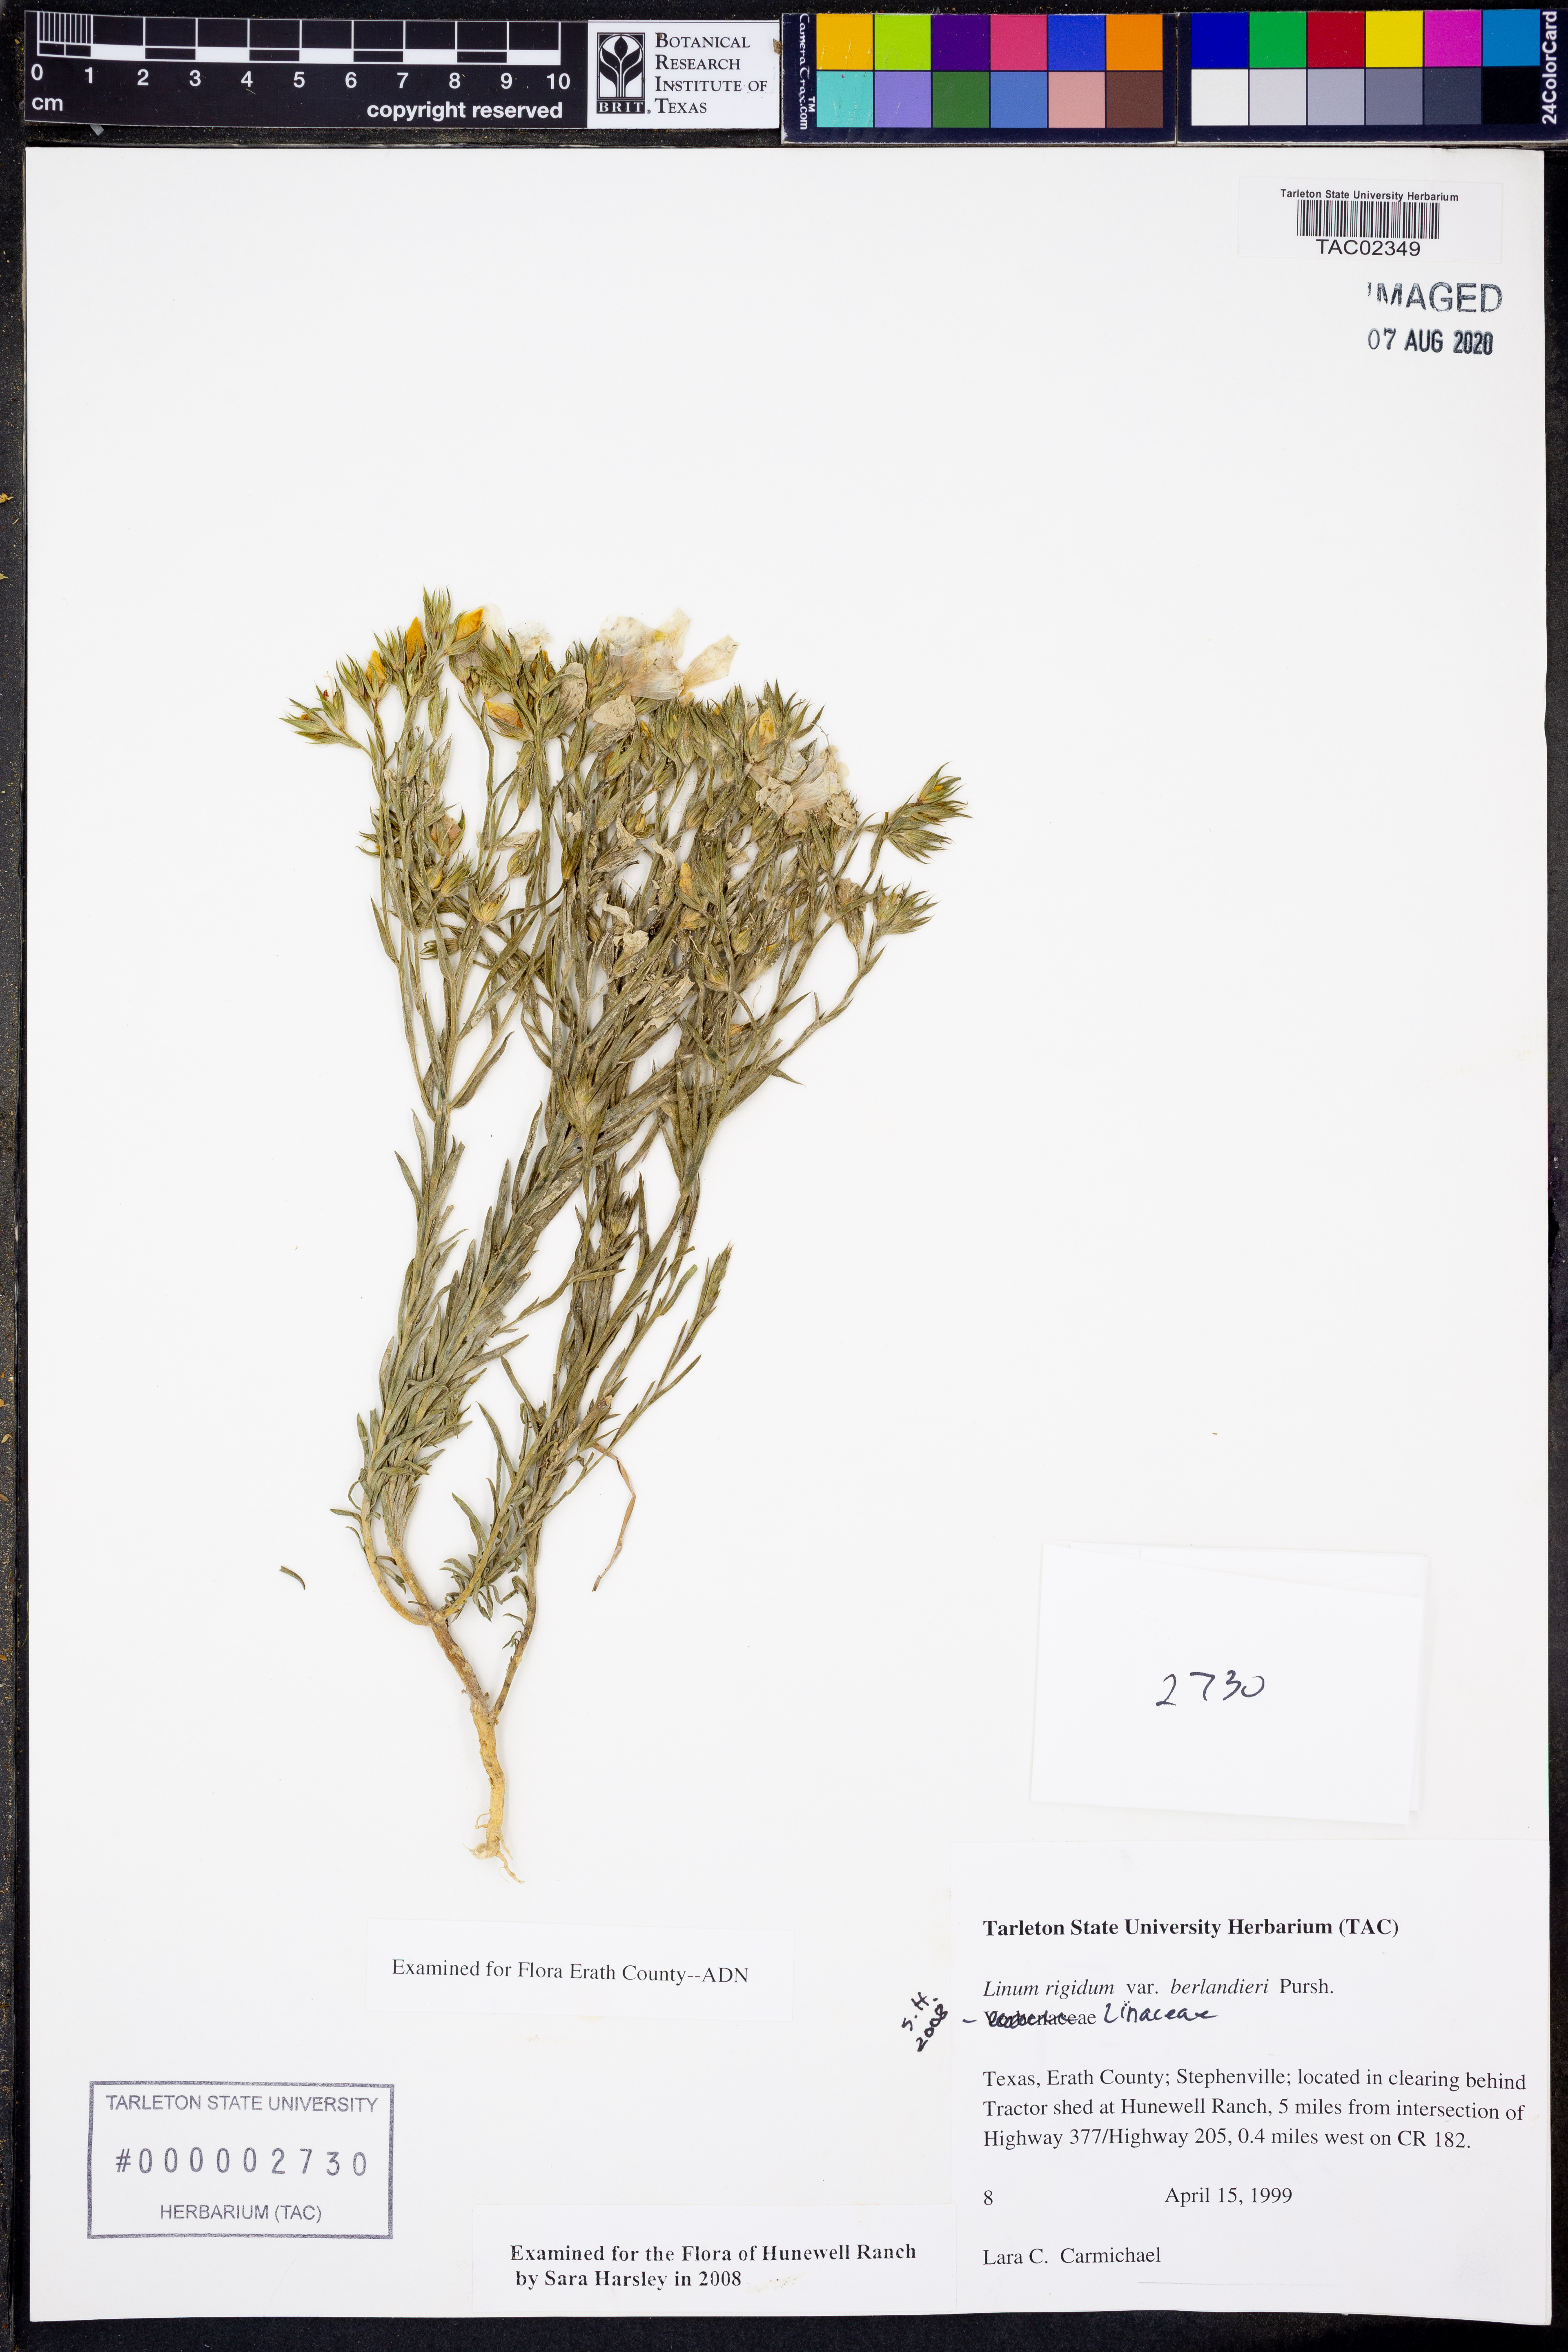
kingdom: Plantae
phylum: Tracheophyta
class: Magnoliopsida
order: Malpighiales
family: Linaceae
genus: Linum
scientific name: Linum berlandieri
